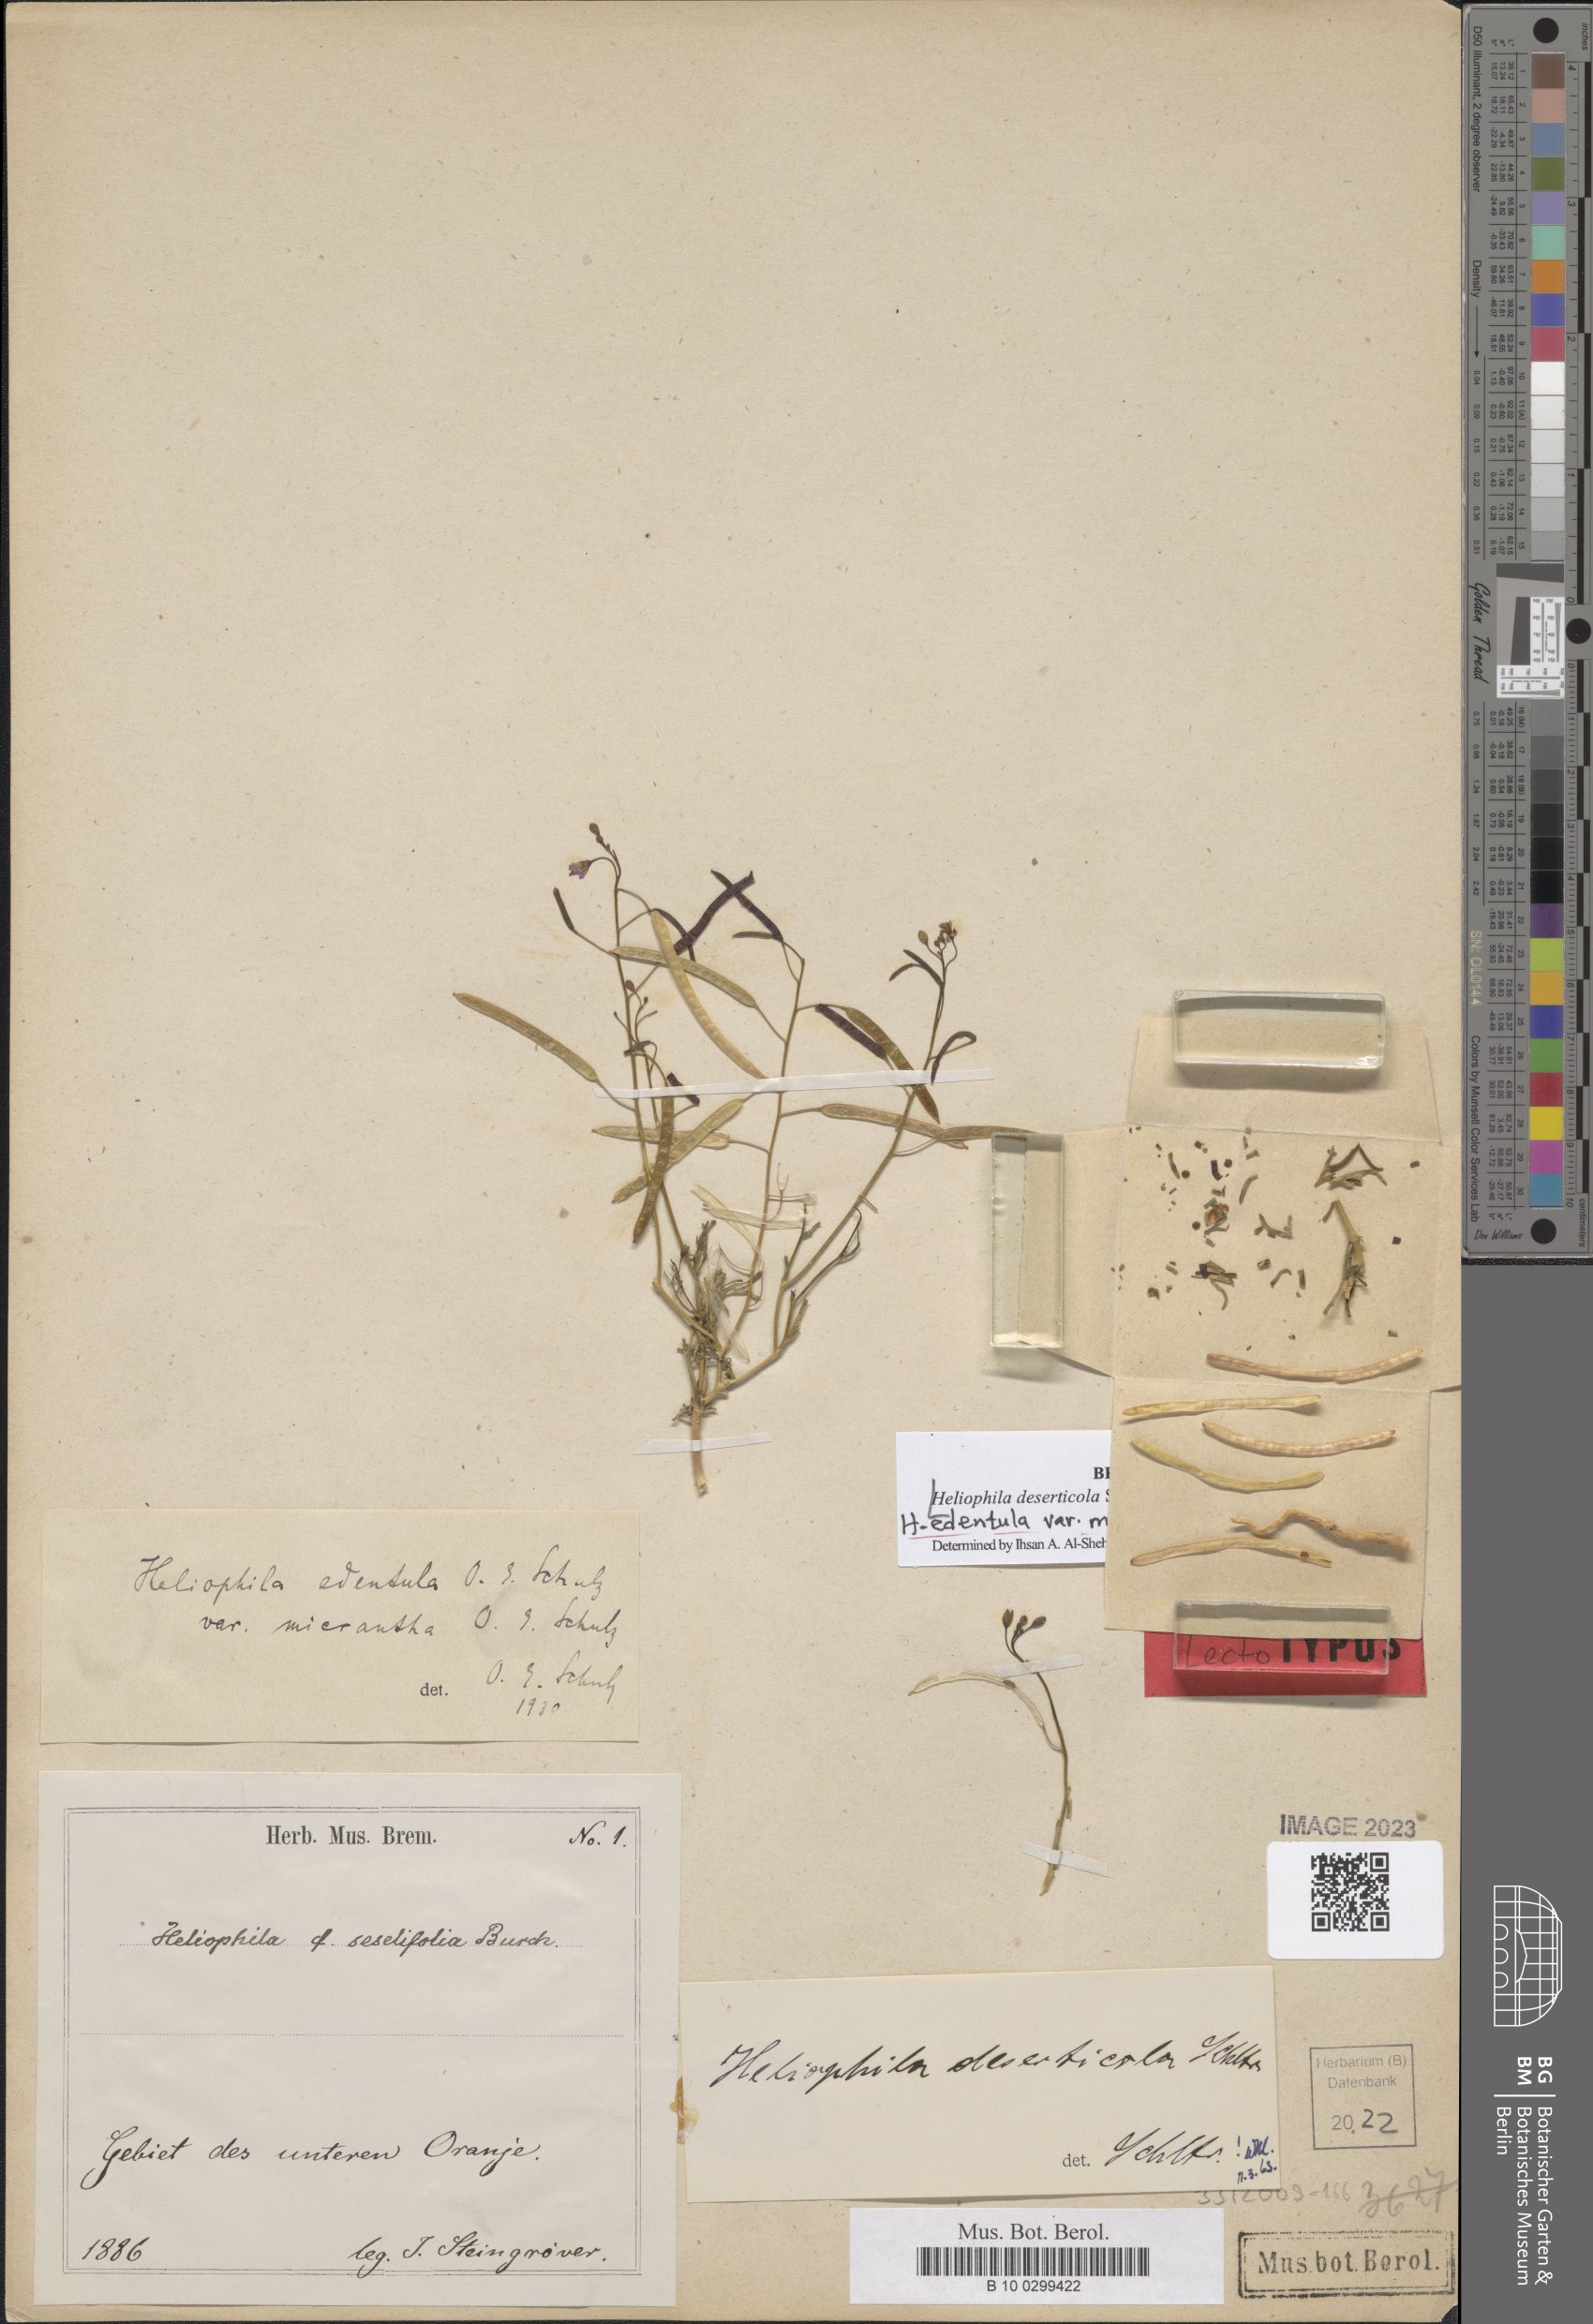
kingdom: Plantae
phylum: Tracheophyta
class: Magnoliopsida
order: Brassicales
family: Brassicaceae
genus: Heliophila
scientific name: Heliophila deserticola
